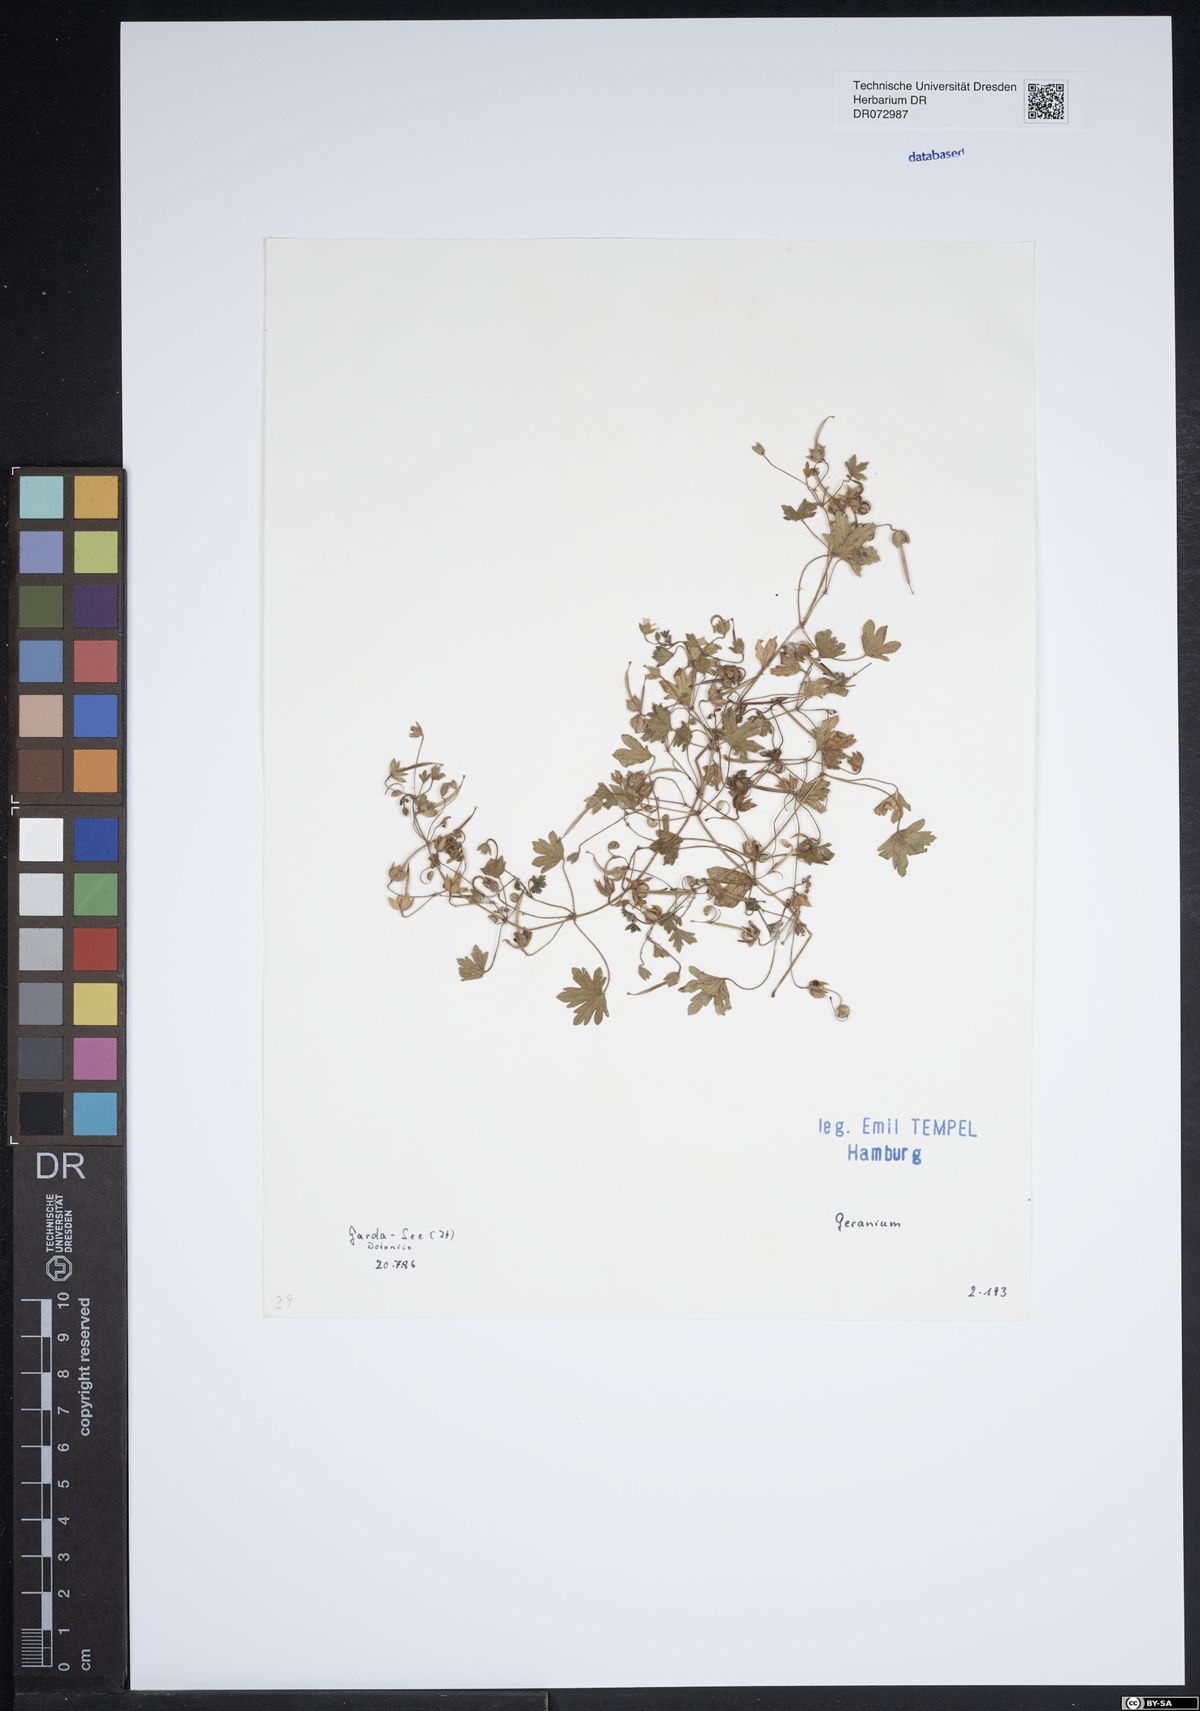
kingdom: Plantae
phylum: Tracheophyta
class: Magnoliopsida
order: Geraniales
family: Geraniaceae
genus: Geranium
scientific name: Geranium
